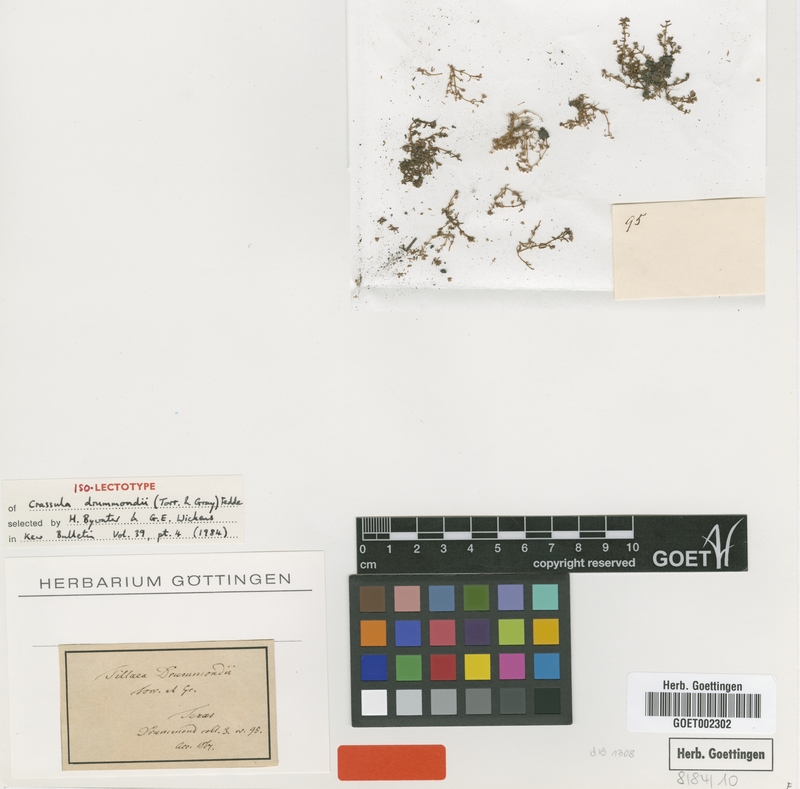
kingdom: Plantae
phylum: Tracheophyta
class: Magnoliopsida
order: Saxifragales
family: Crassulaceae
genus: Crassula
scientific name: Crassula drummondii
